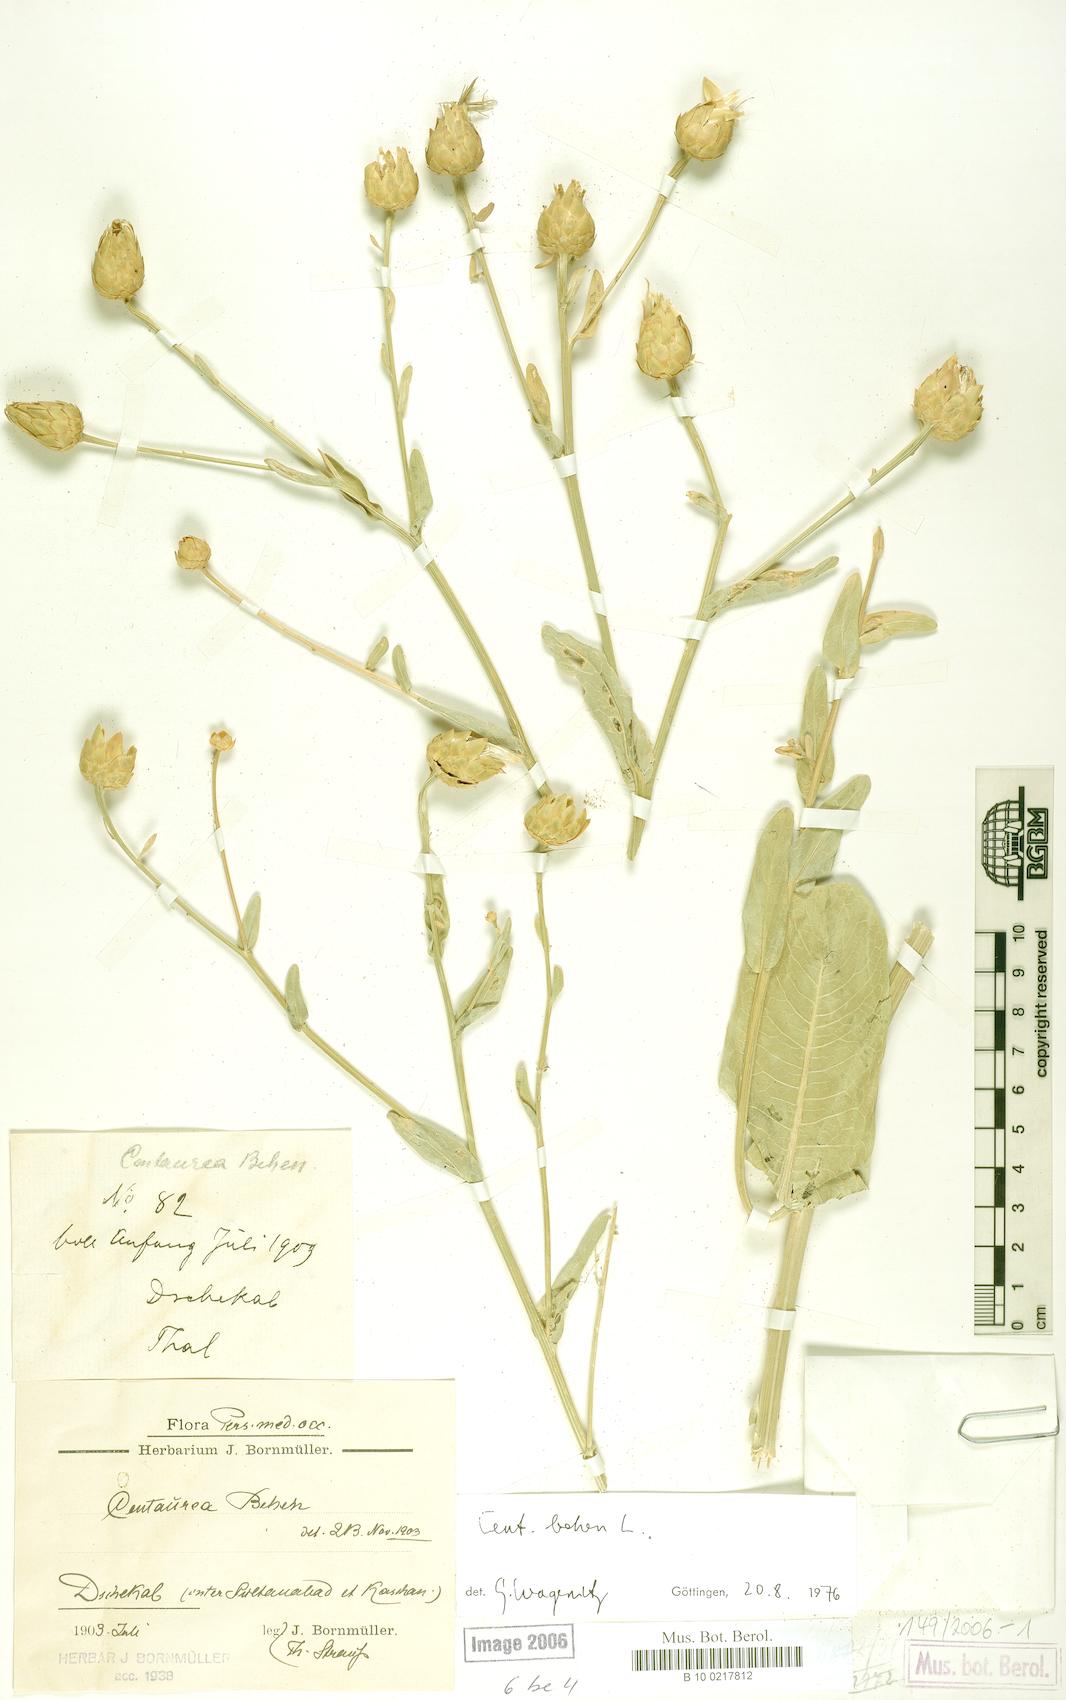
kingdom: Plantae
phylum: Tracheophyta
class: Magnoliopsida
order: Asterales
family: Asteraceae
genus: Centaurea
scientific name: Centaurea behen
